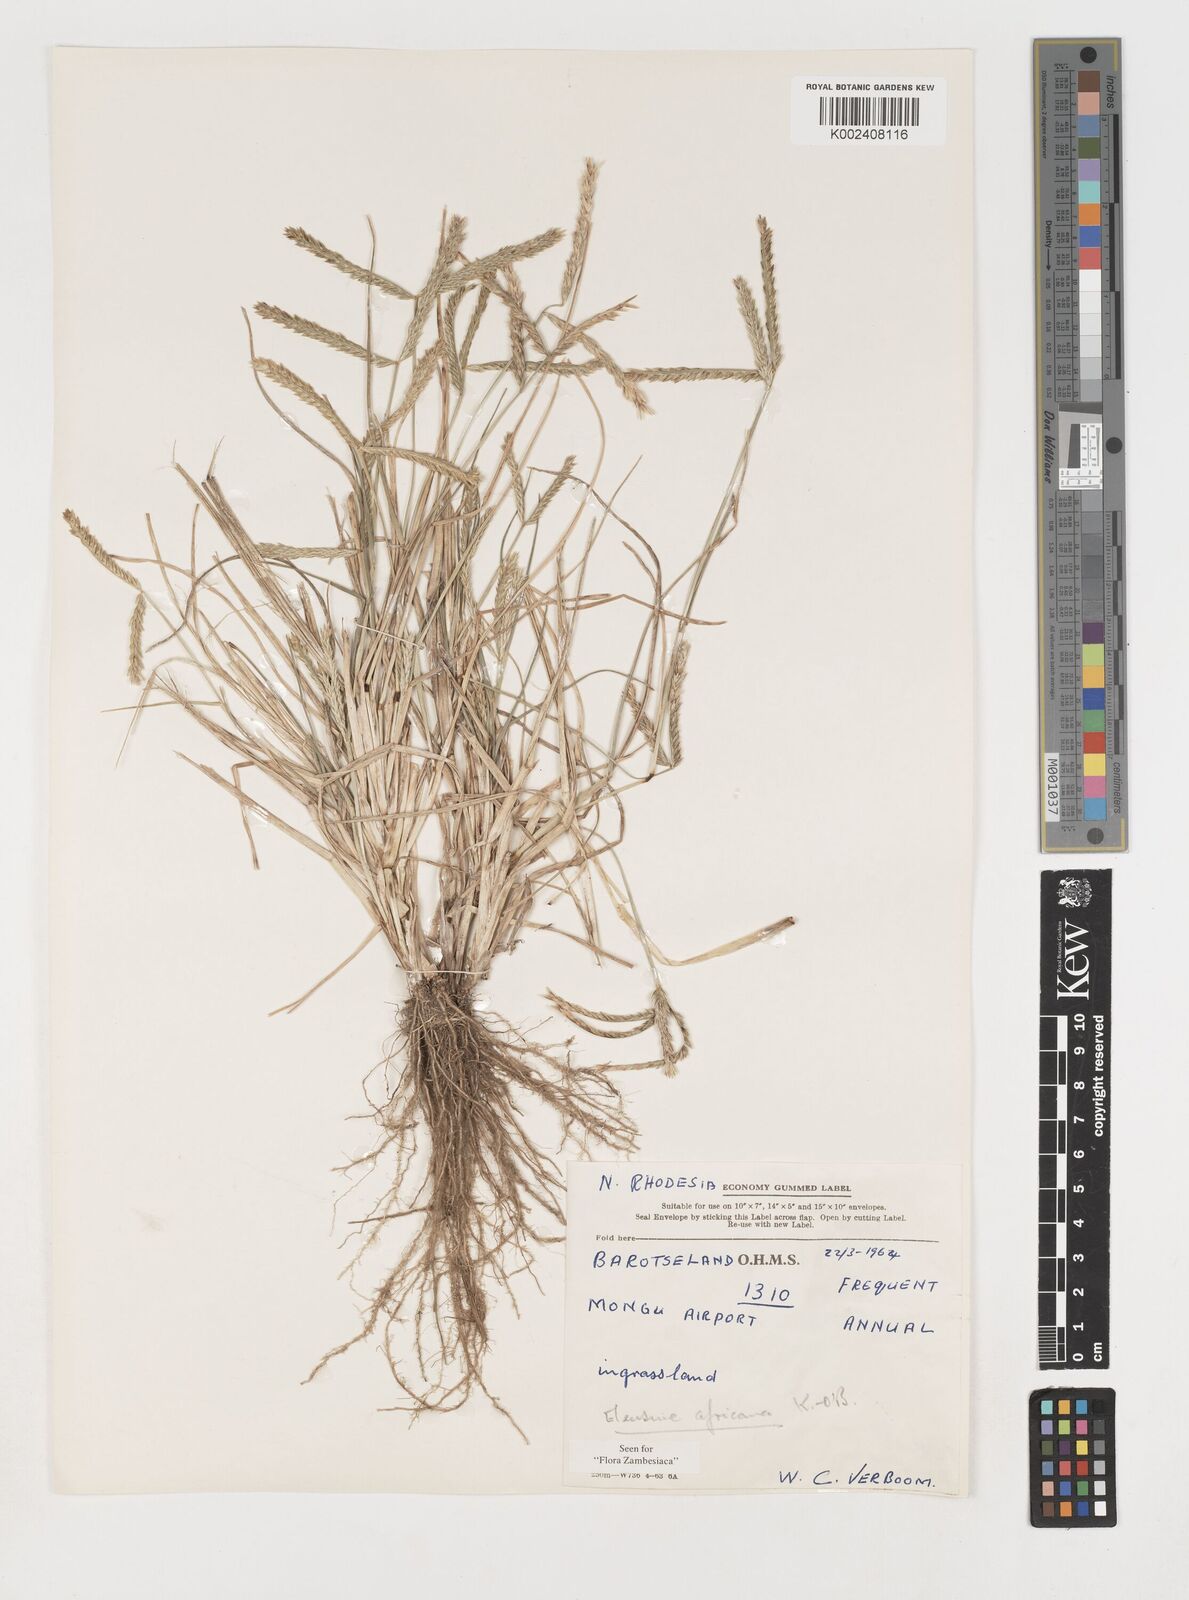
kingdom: Plantae
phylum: Tracheophyta
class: Liliopsida
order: Poales
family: Poaceae
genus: Eleusine
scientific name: Eleusine africana
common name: Wild african finger millet
